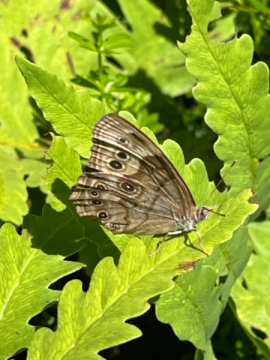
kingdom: Animalia
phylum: Arthropoda
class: Insecta
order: Lepidoptera
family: Nymphalidae
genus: Lethe
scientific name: Lethe anthedon
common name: Northern Pearly-Eye
